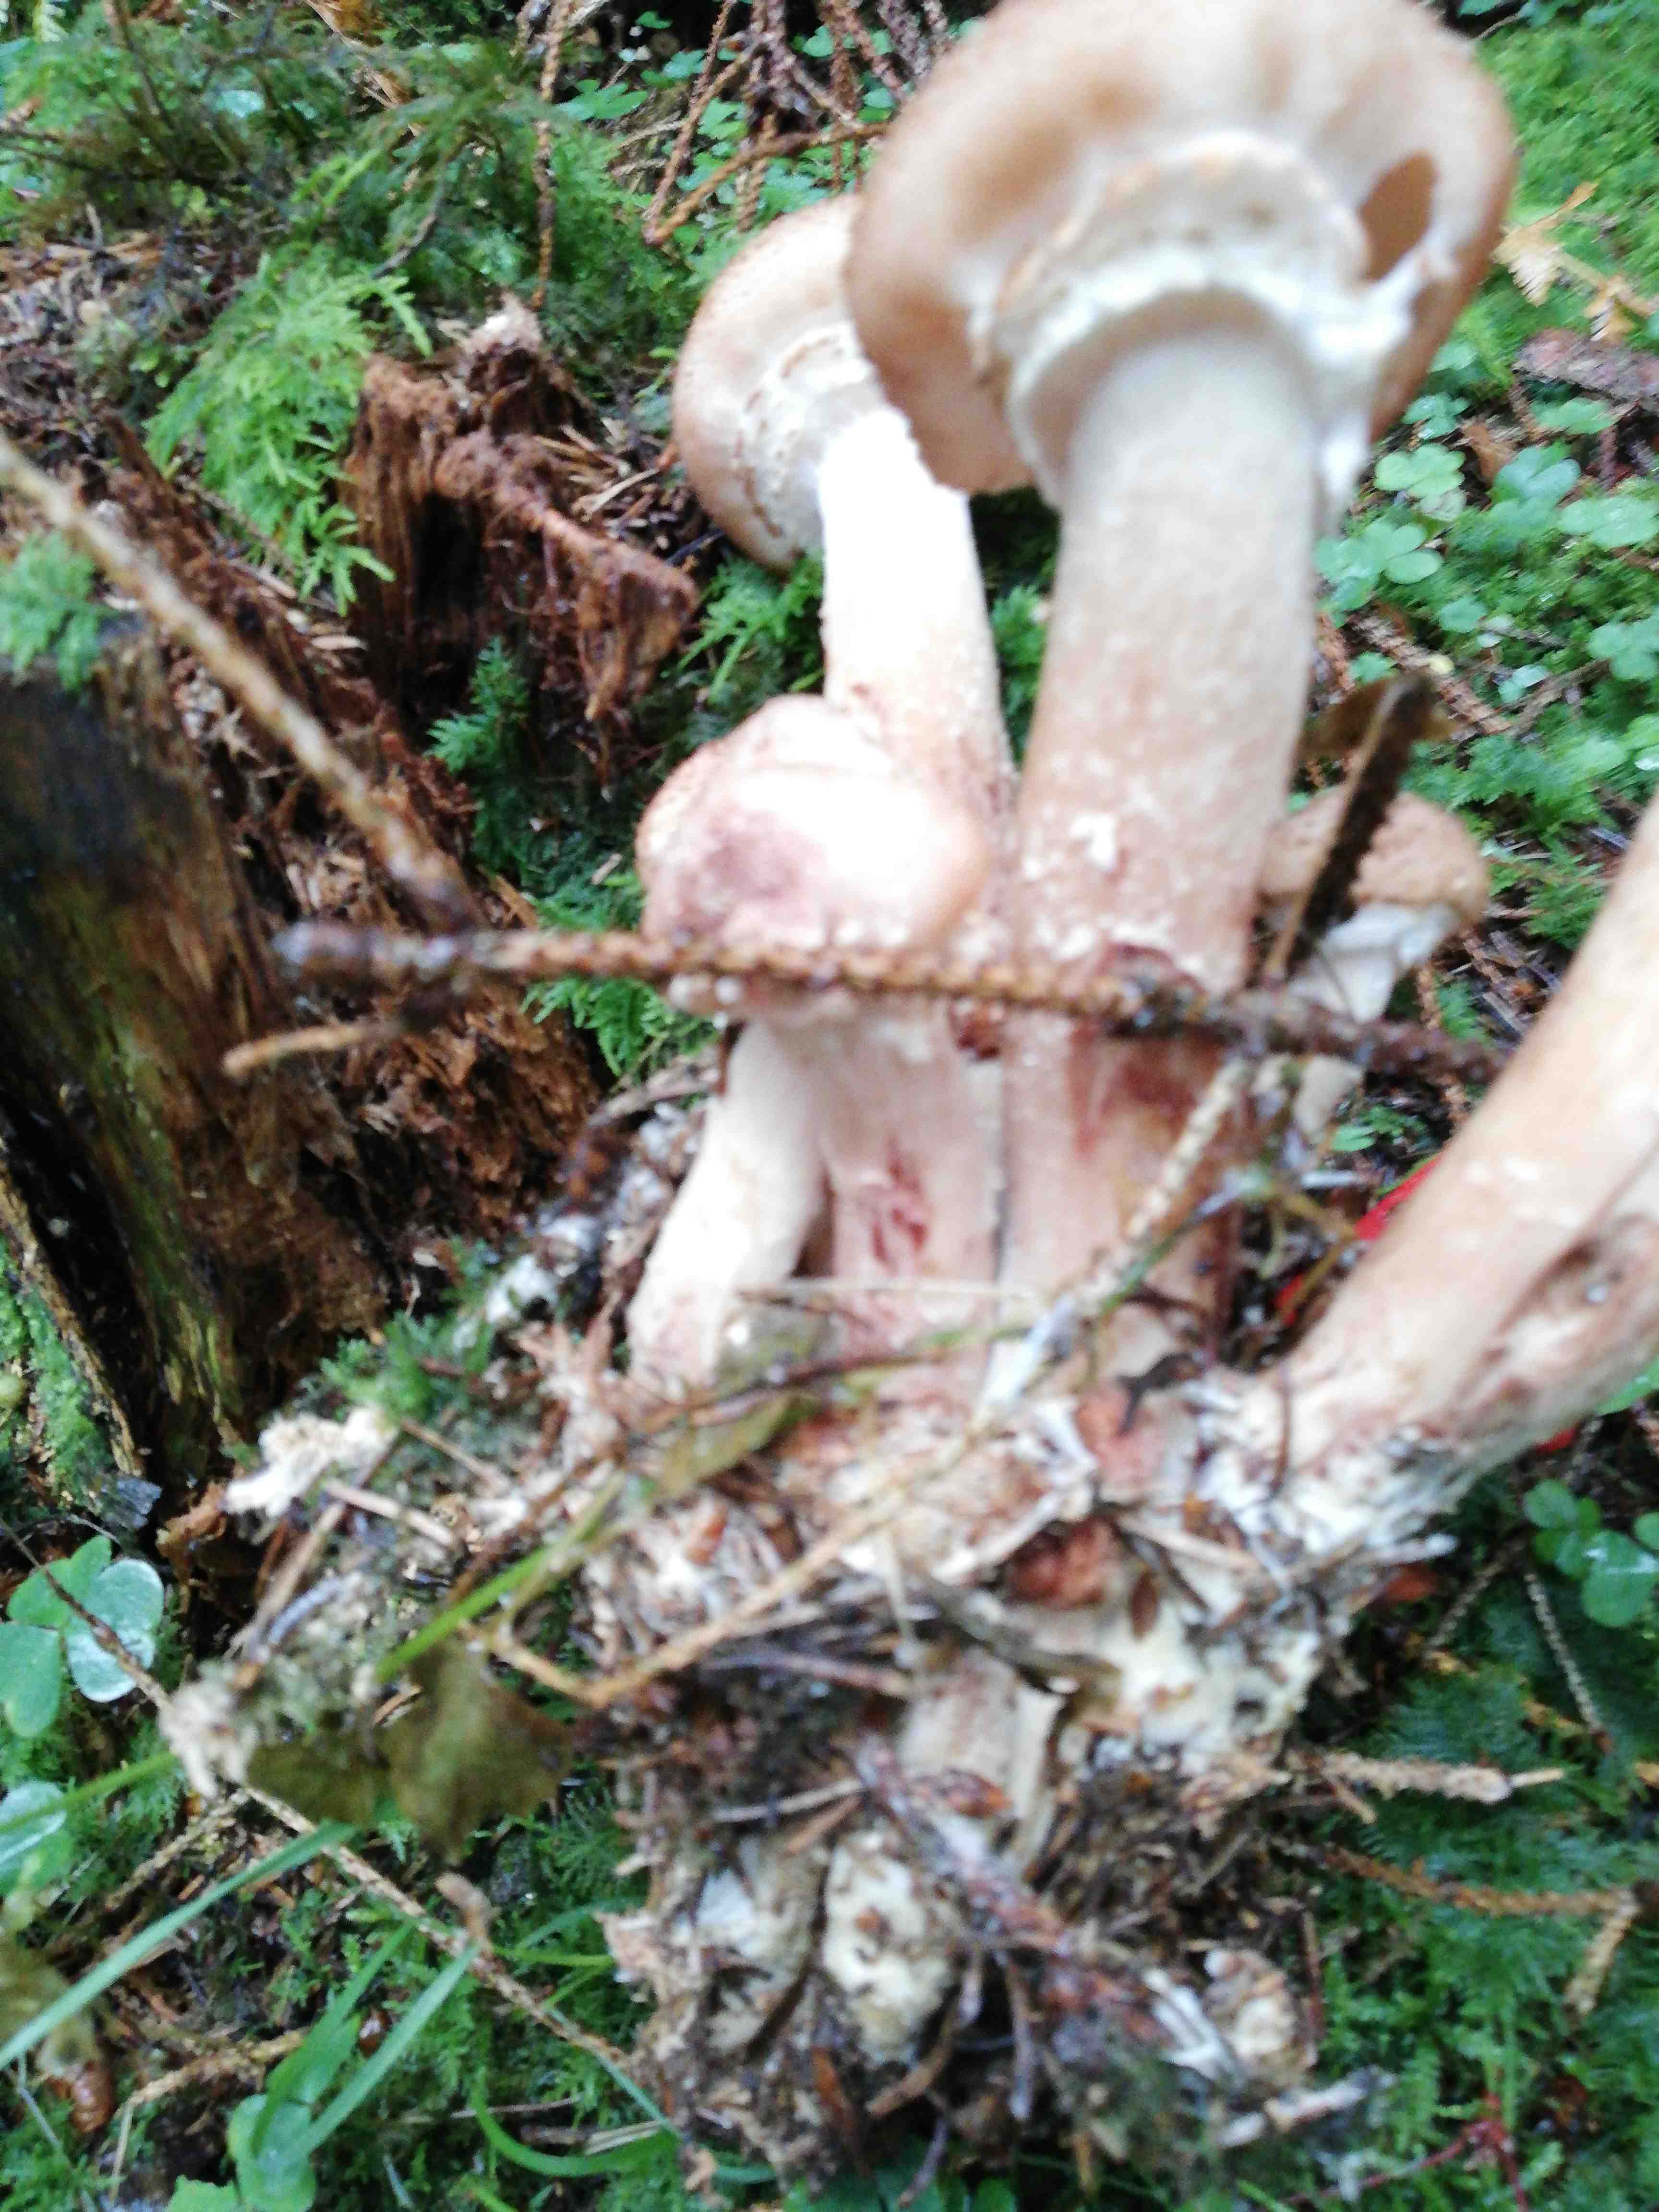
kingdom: Fungi
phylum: Basidiomycota
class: Agaricomycetes
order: Agaricales
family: Physalacriaceae
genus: Armillaria
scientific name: Armillaria ostoyae
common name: mørk honningsvamp
